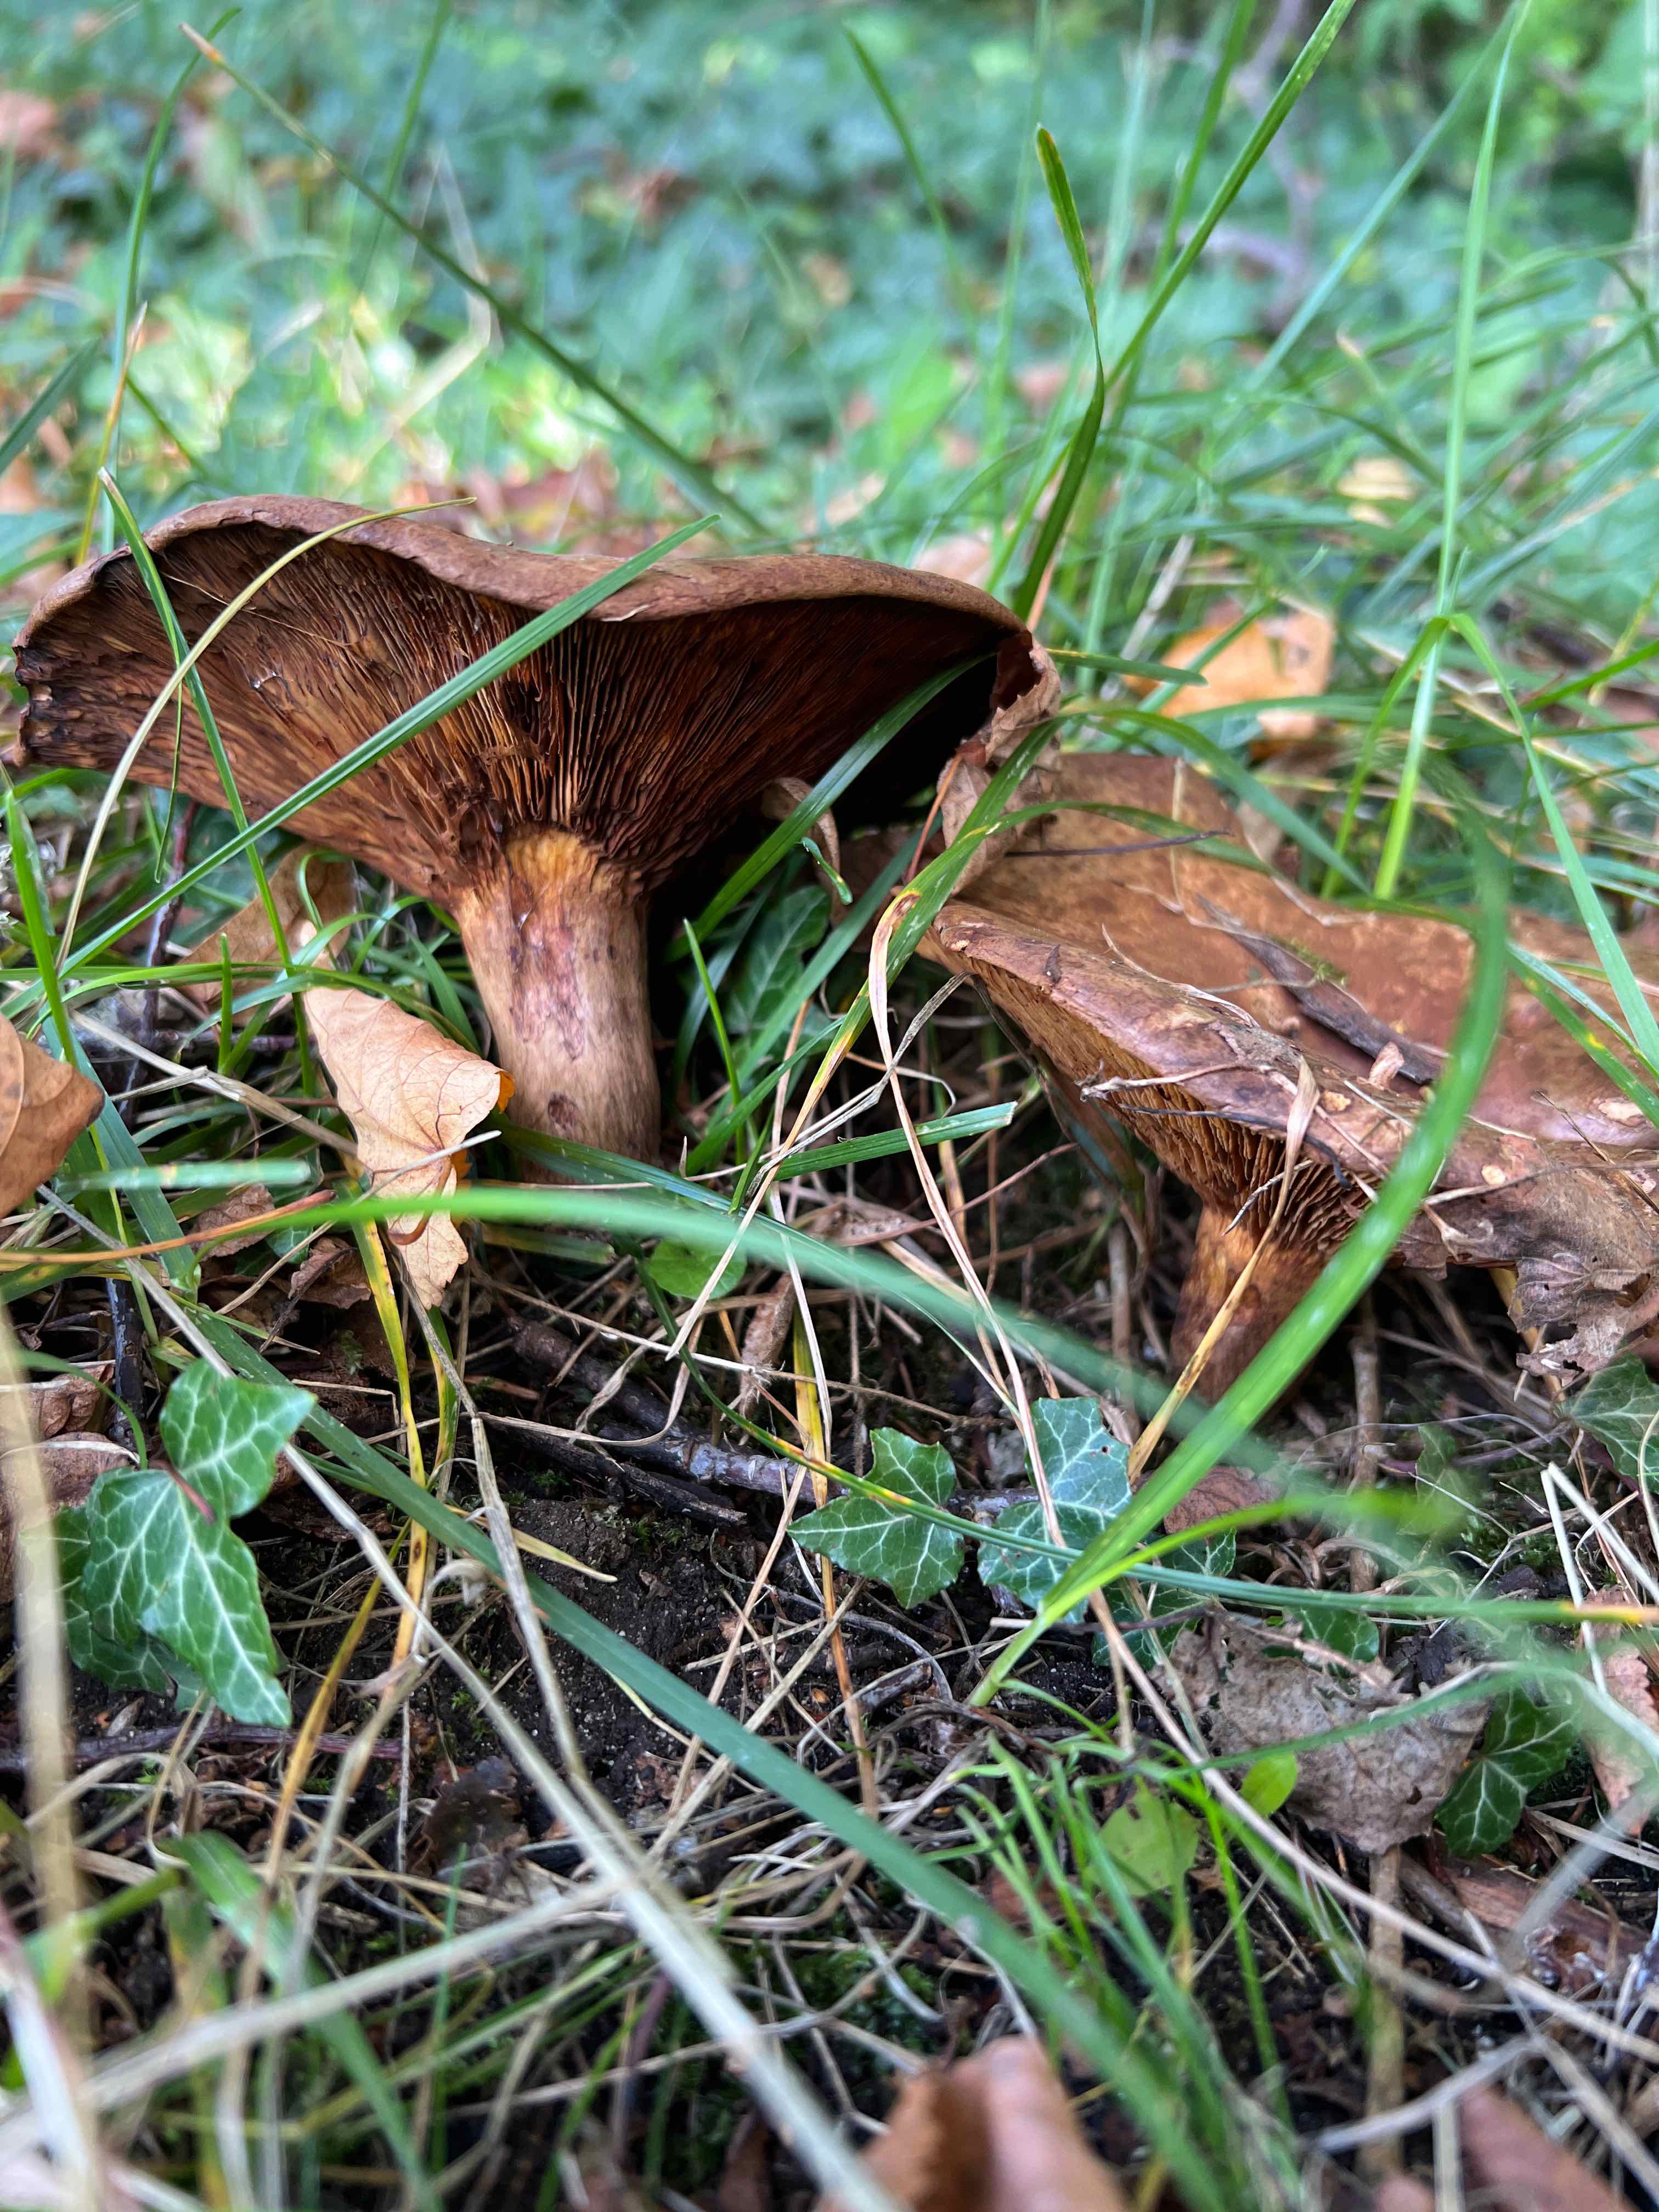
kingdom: Fungi
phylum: Basidiomycota
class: Agaricomycetes
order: Boletales
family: Paxillaceae
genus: Paxillus
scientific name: Paxillus
